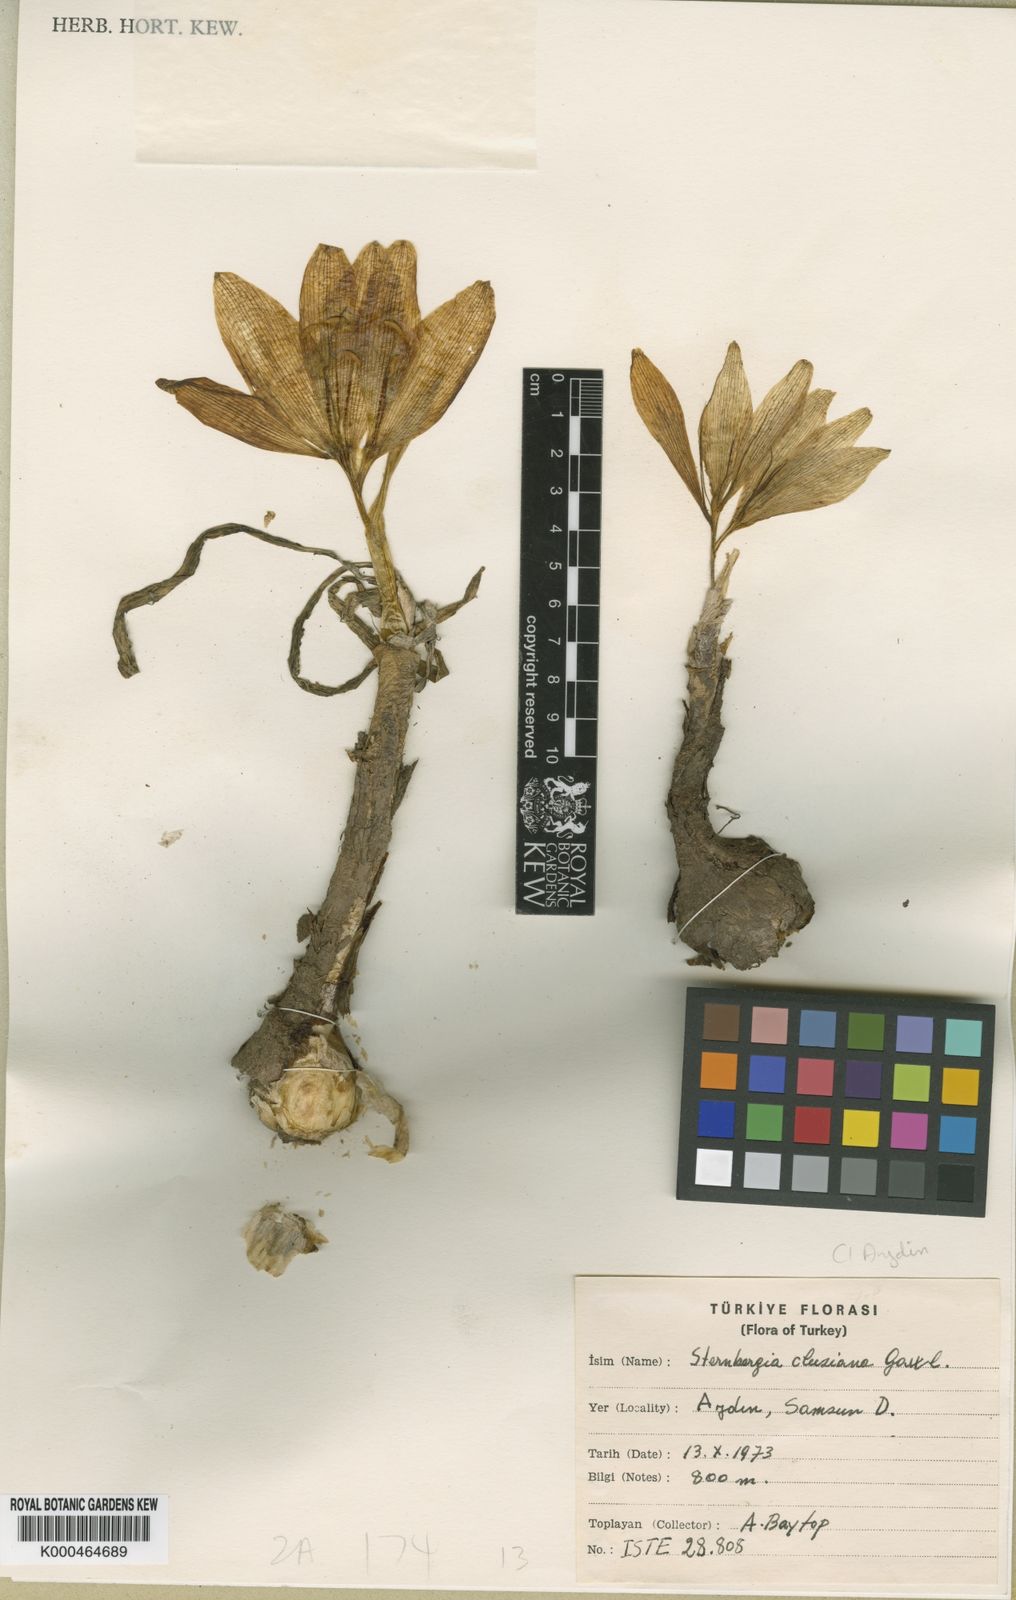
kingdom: Plantae
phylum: Tracheophyta
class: Liliopsida
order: Asparagales
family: Amaryllidaceae
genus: Sternbergia
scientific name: Sternbergia
